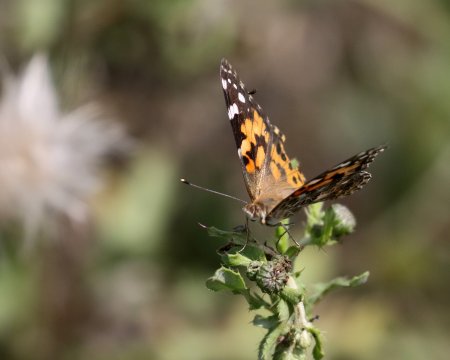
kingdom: Animalia
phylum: Arthropoda
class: Insecta
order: Lepidoptera
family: Nymphalidae
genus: Vanessa
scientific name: Vanessa cardui
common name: Painted Lady
